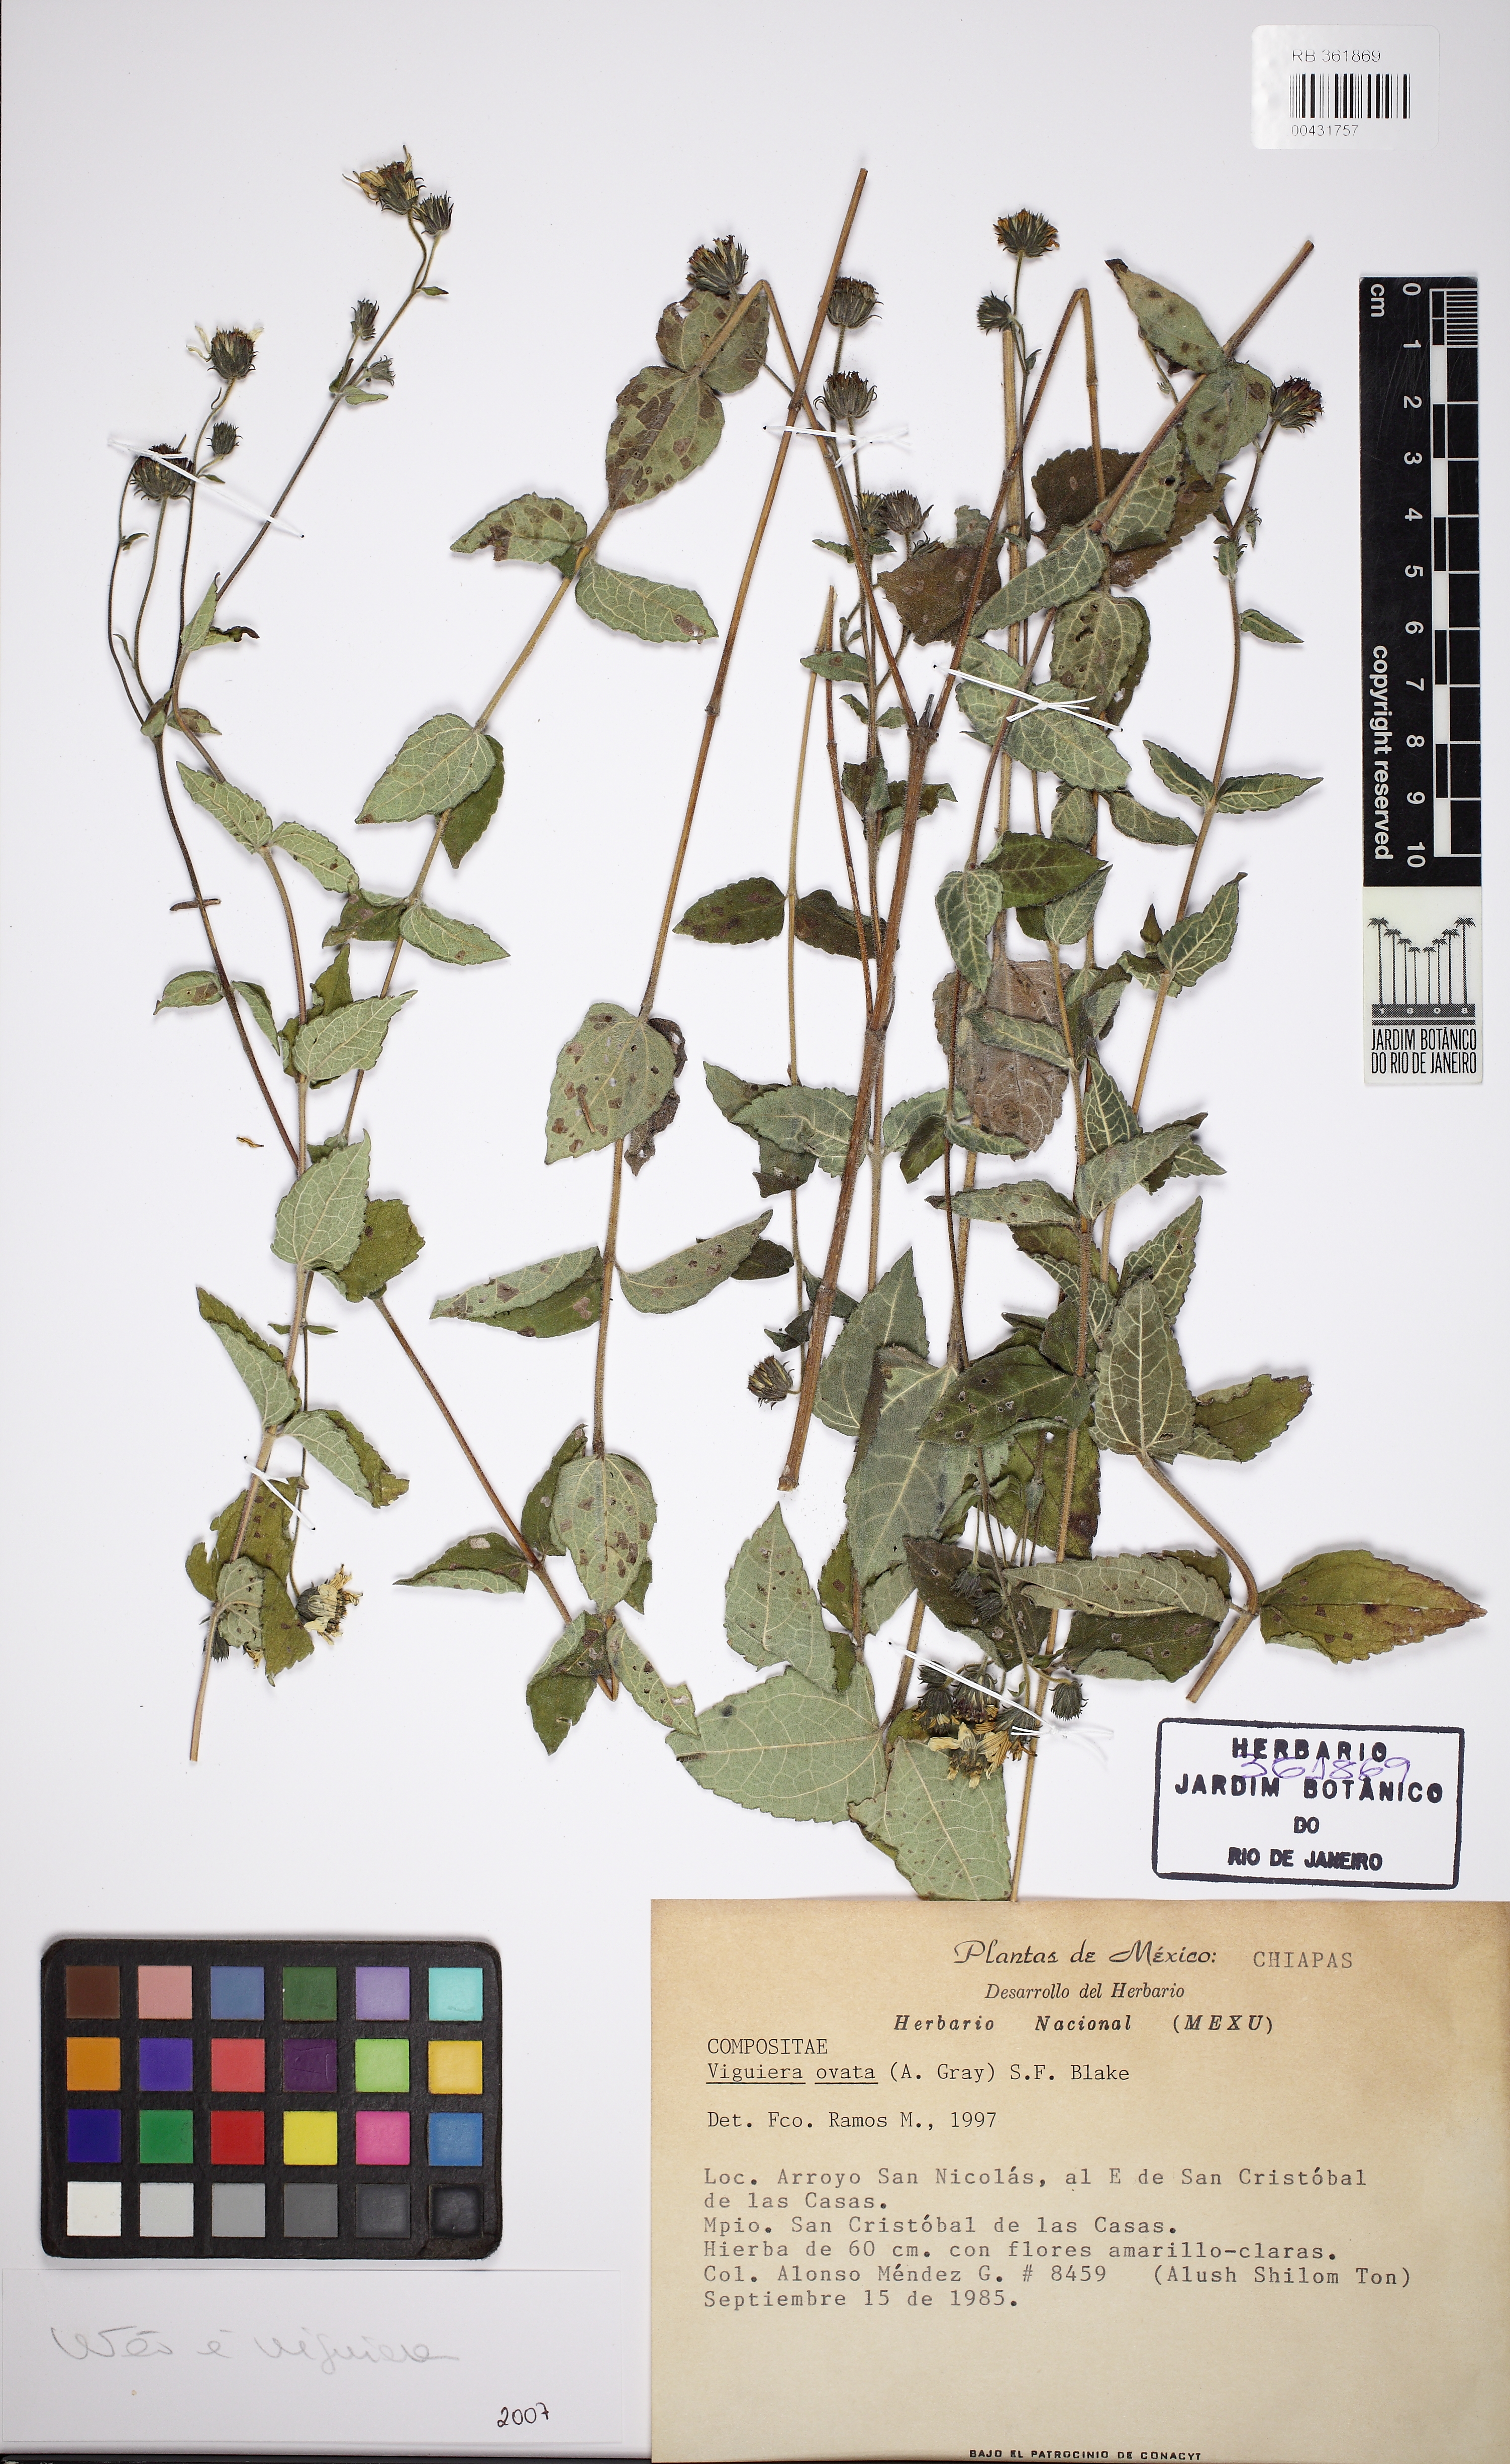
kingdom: Plantae
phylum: Tracheophyta
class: Magnoliopsida
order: Asterales
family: Asteraceae
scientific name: Asteraceae
